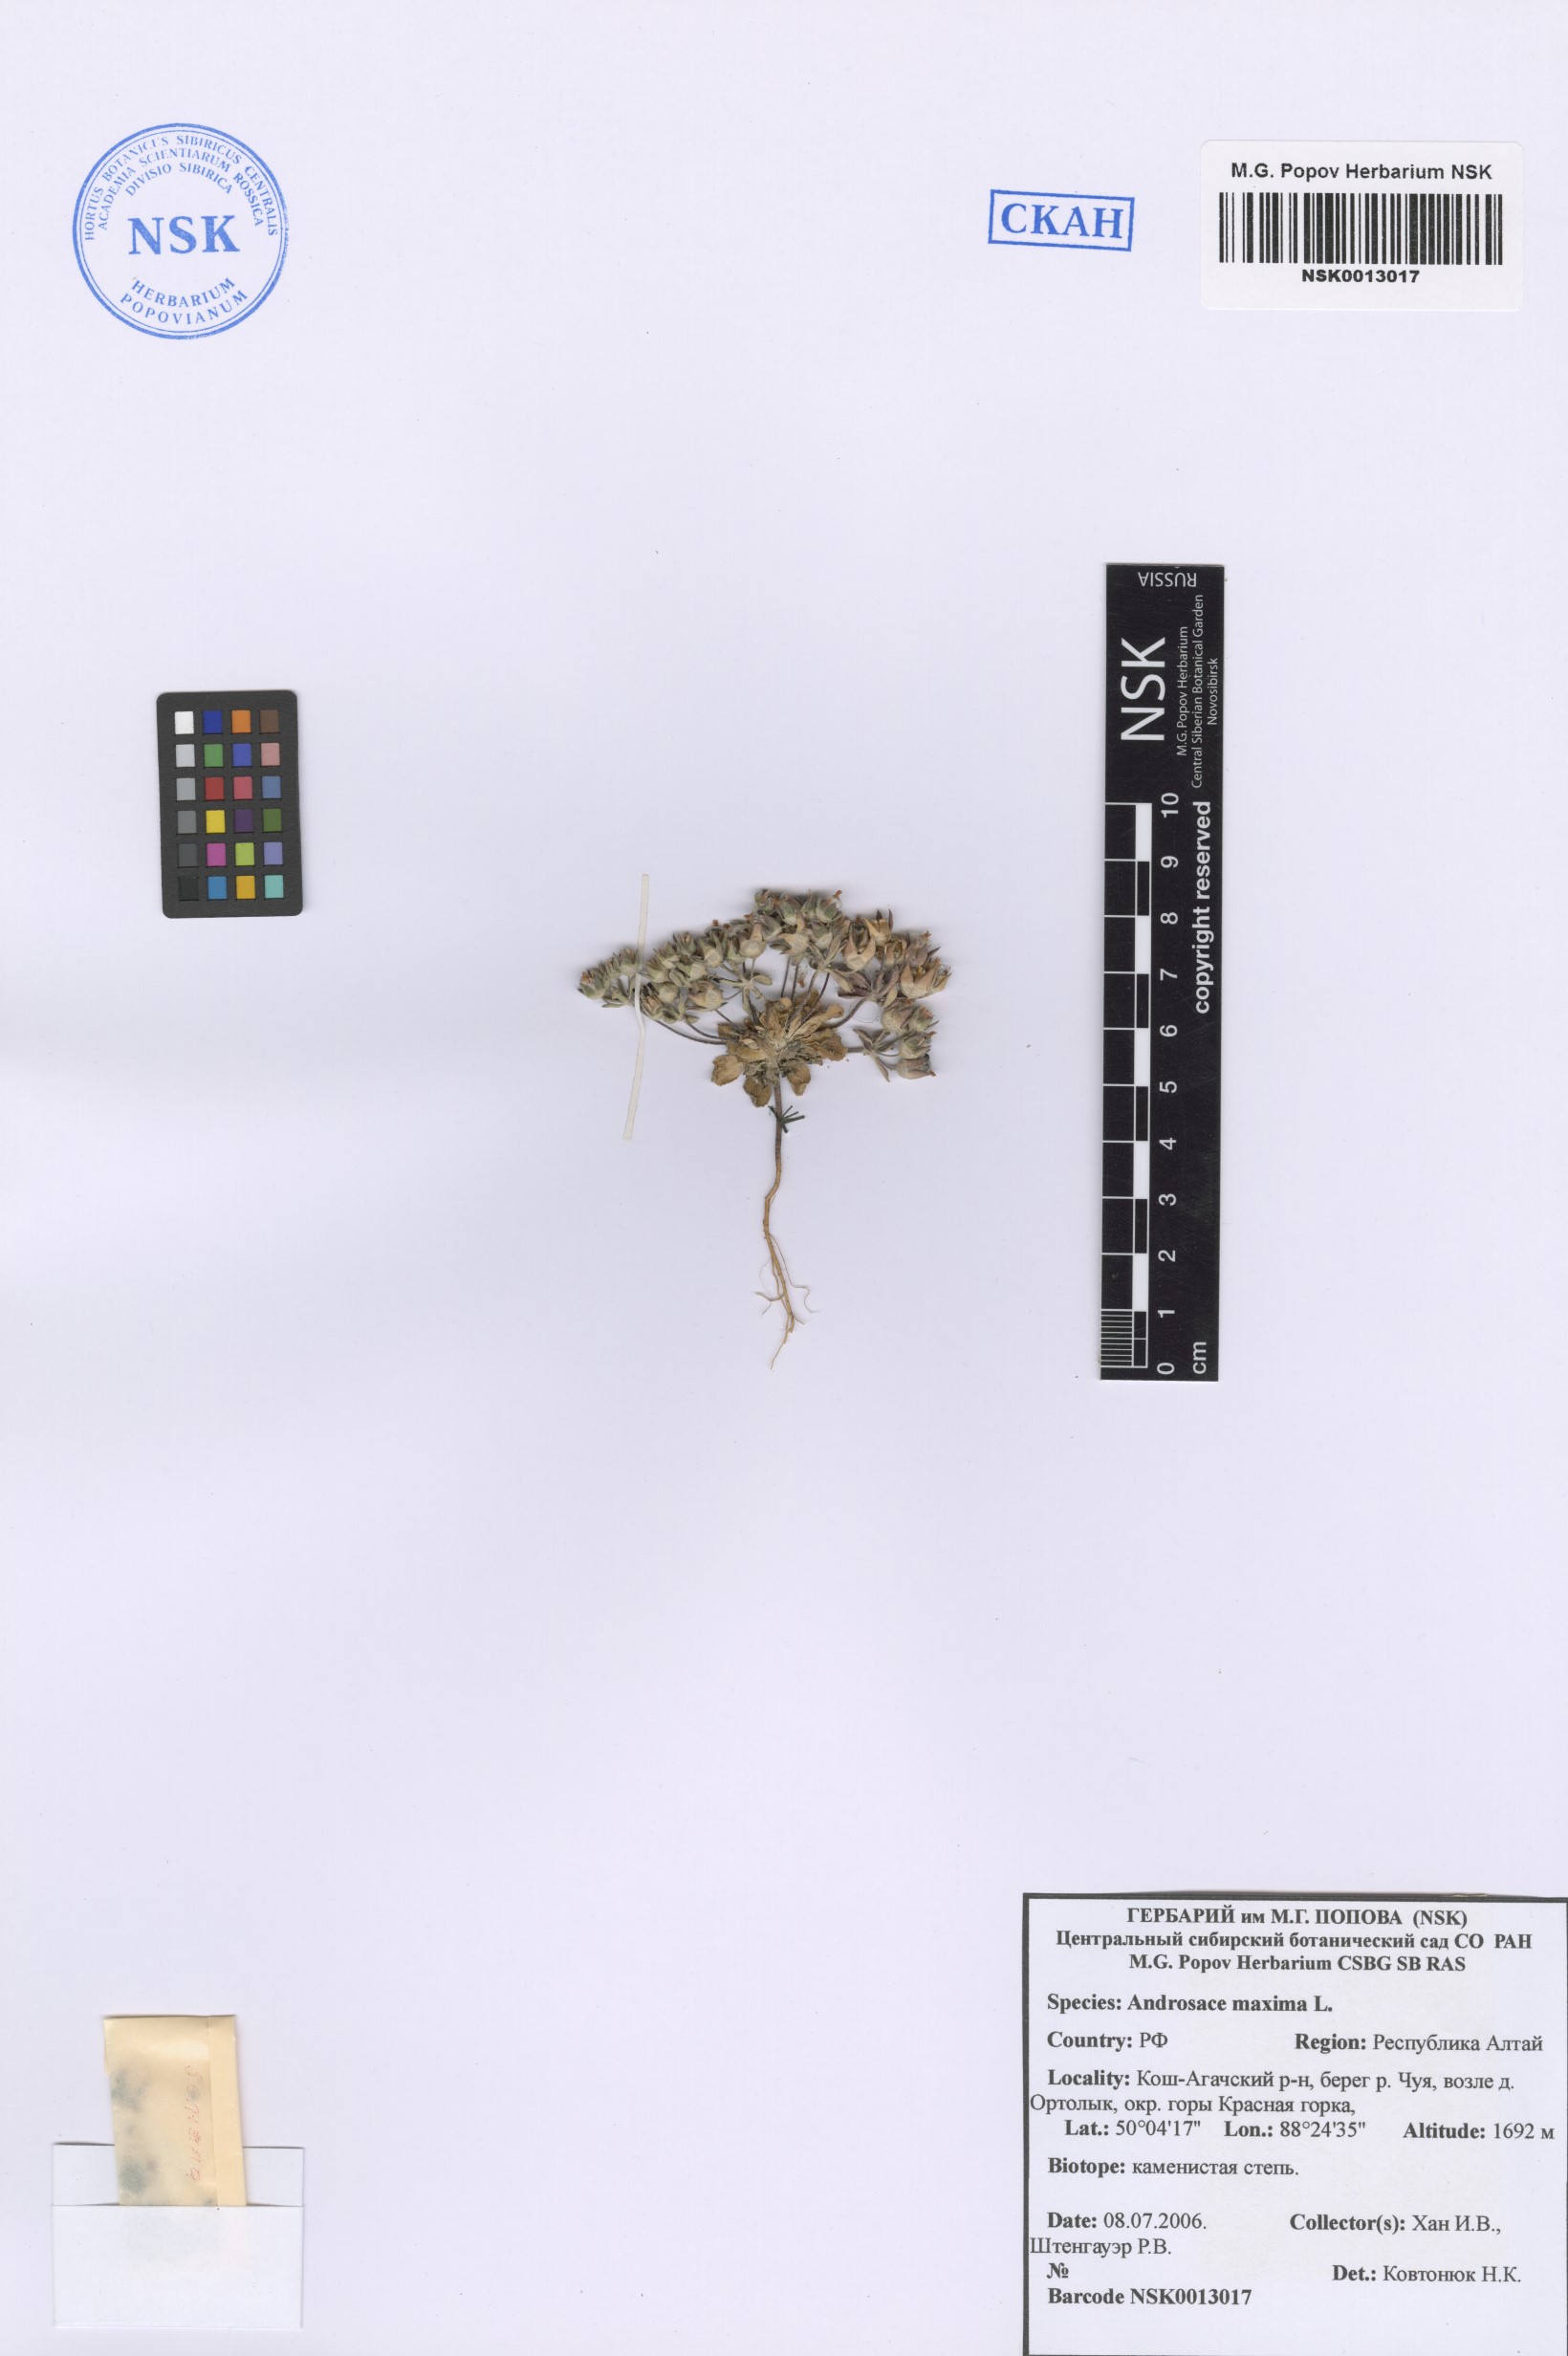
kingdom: Plantae
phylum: Tracheophyta
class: Magnoliopsida
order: Ericales
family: Primulaceae
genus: Androsace
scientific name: Androsace maxima
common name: Annual androsace
